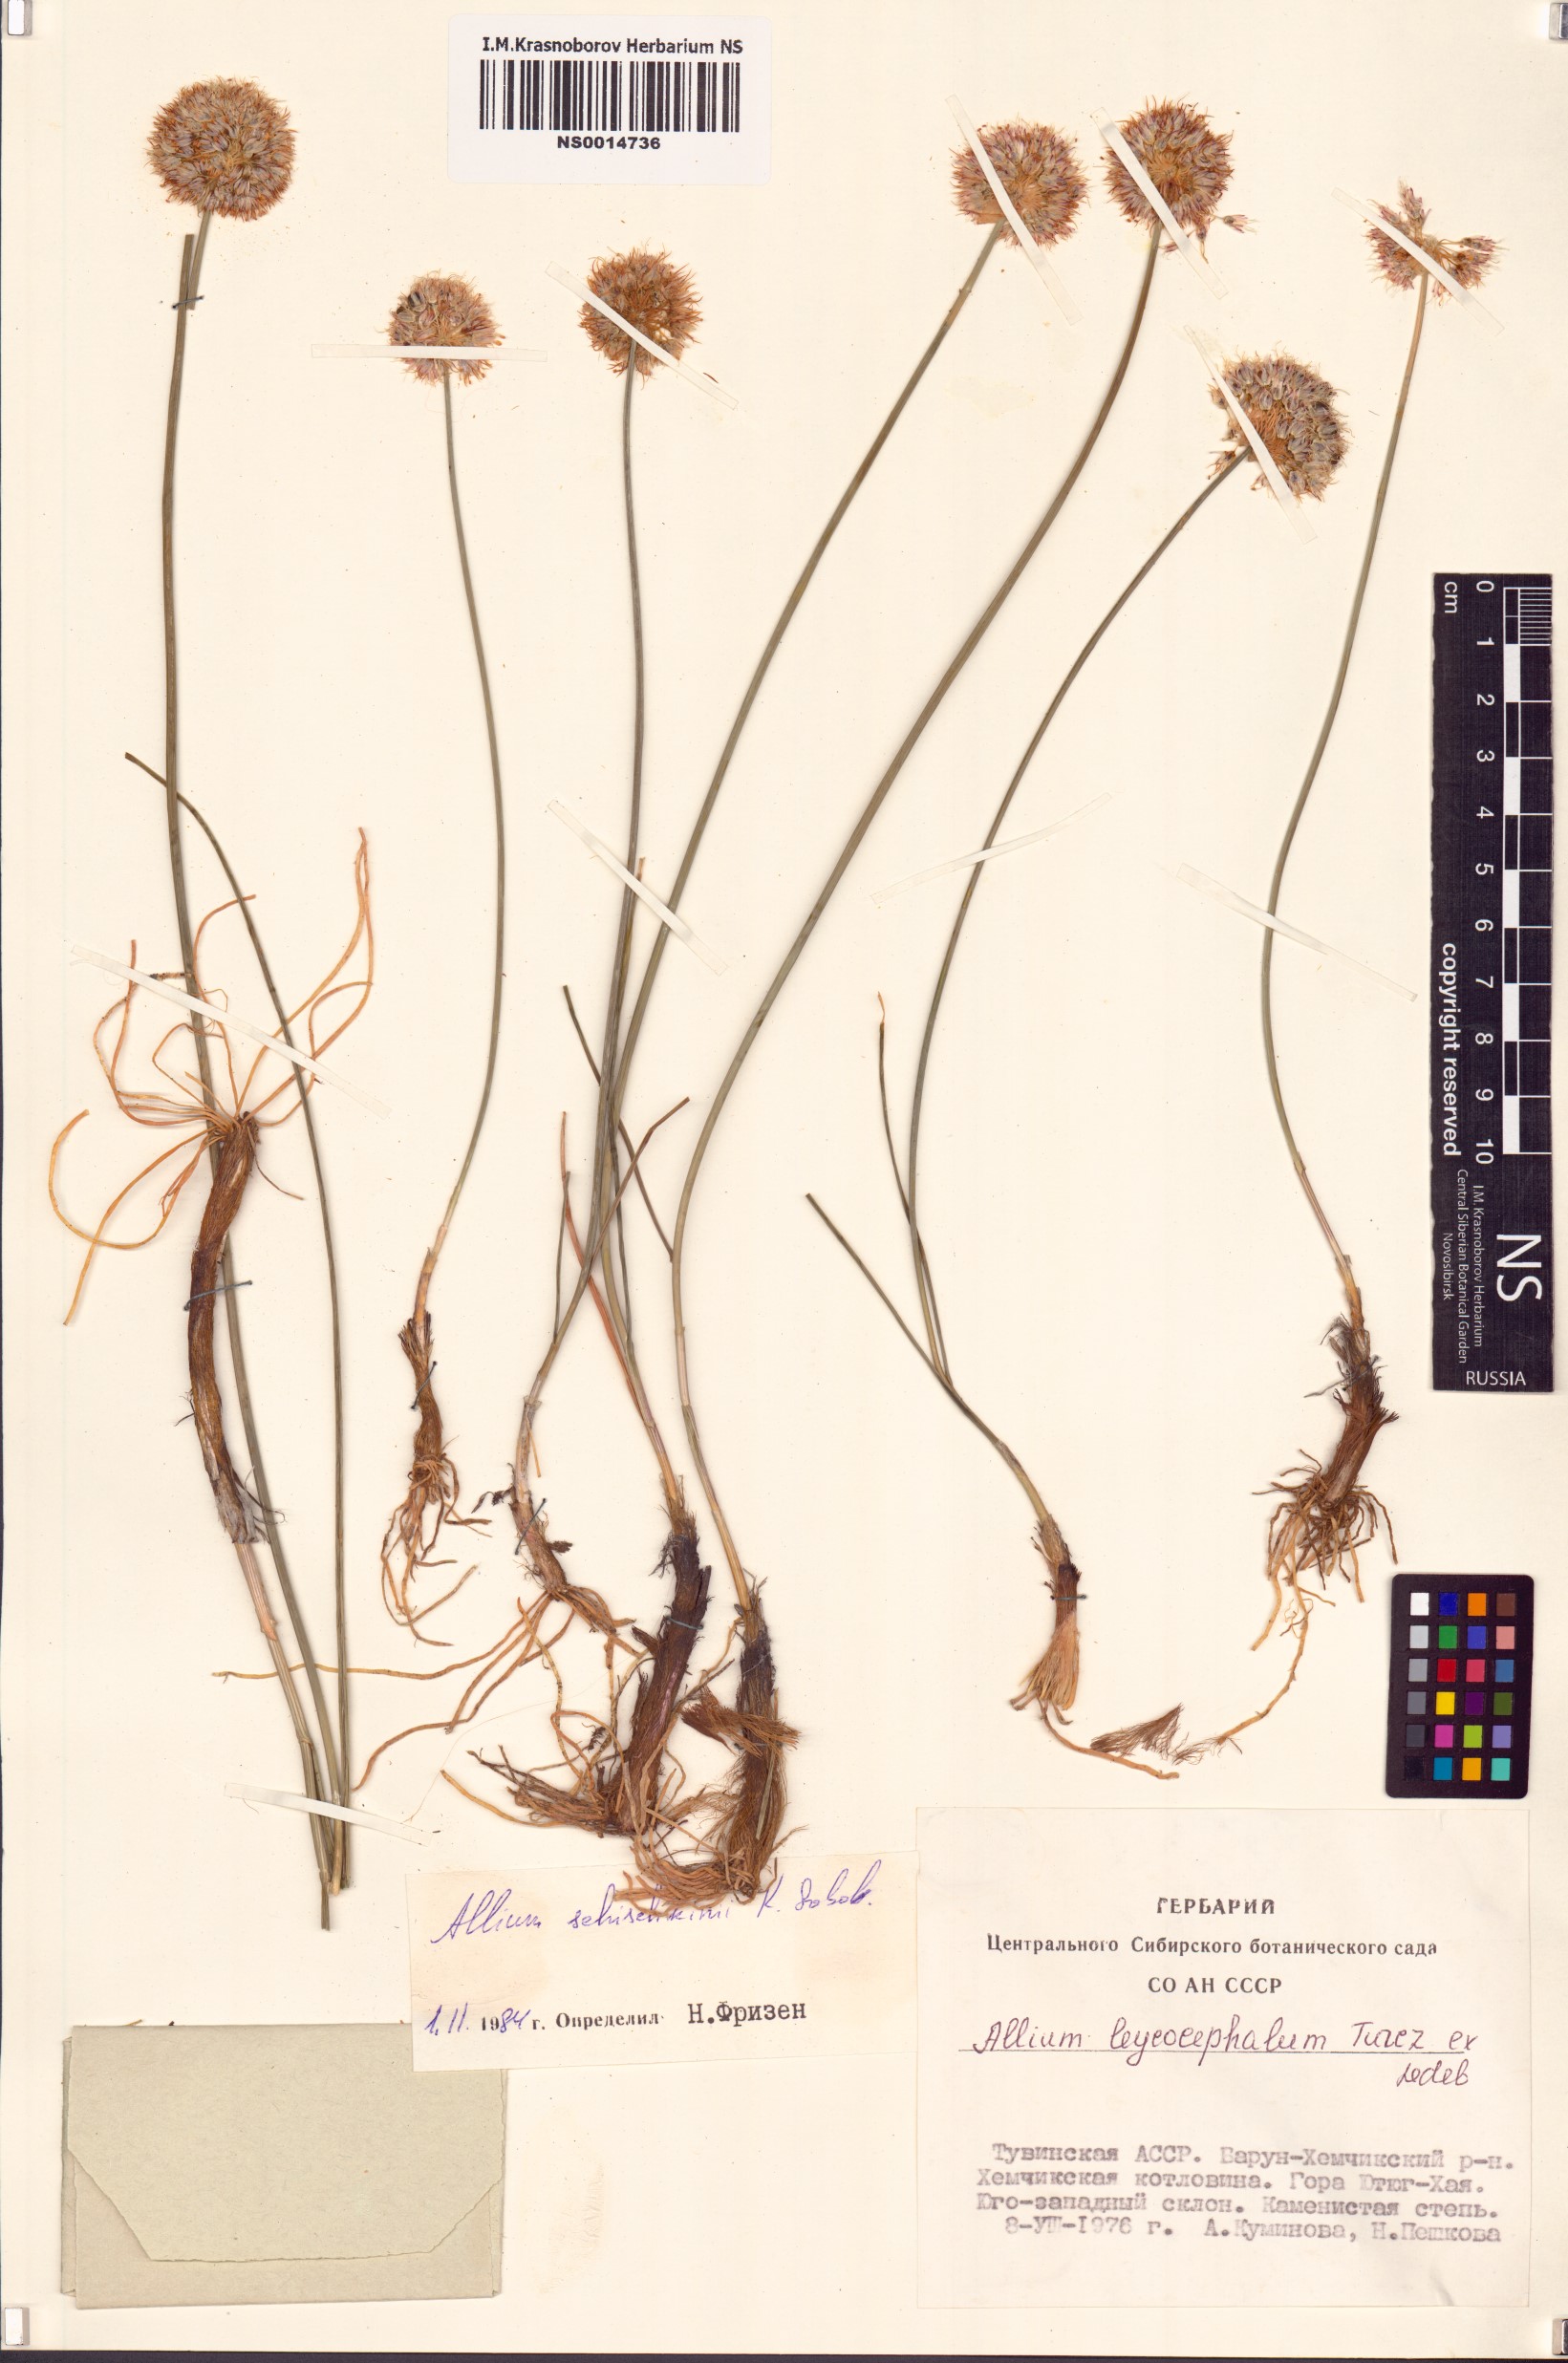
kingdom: Plantae
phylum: Tracheophyta
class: Liliopsida
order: Asparagales
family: Amaryllidaceae
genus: Allium
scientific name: Allium schischkinii
